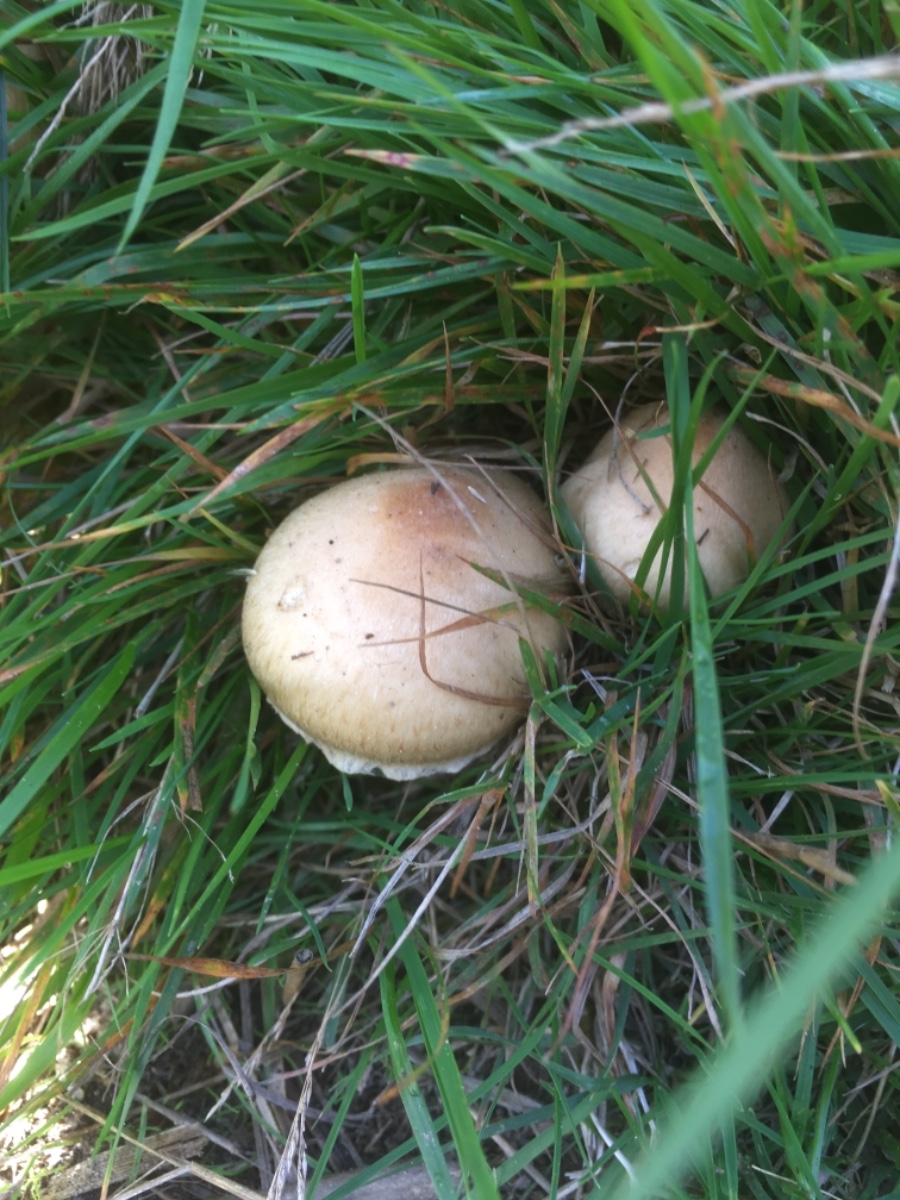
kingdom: Fungi
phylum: Basidiomycota
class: Agaricomycetes
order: Agaricales
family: Psathyrellaceae
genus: Lacrymaria
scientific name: Lacrymaria lacrymabunda
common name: grædende mørkhat
